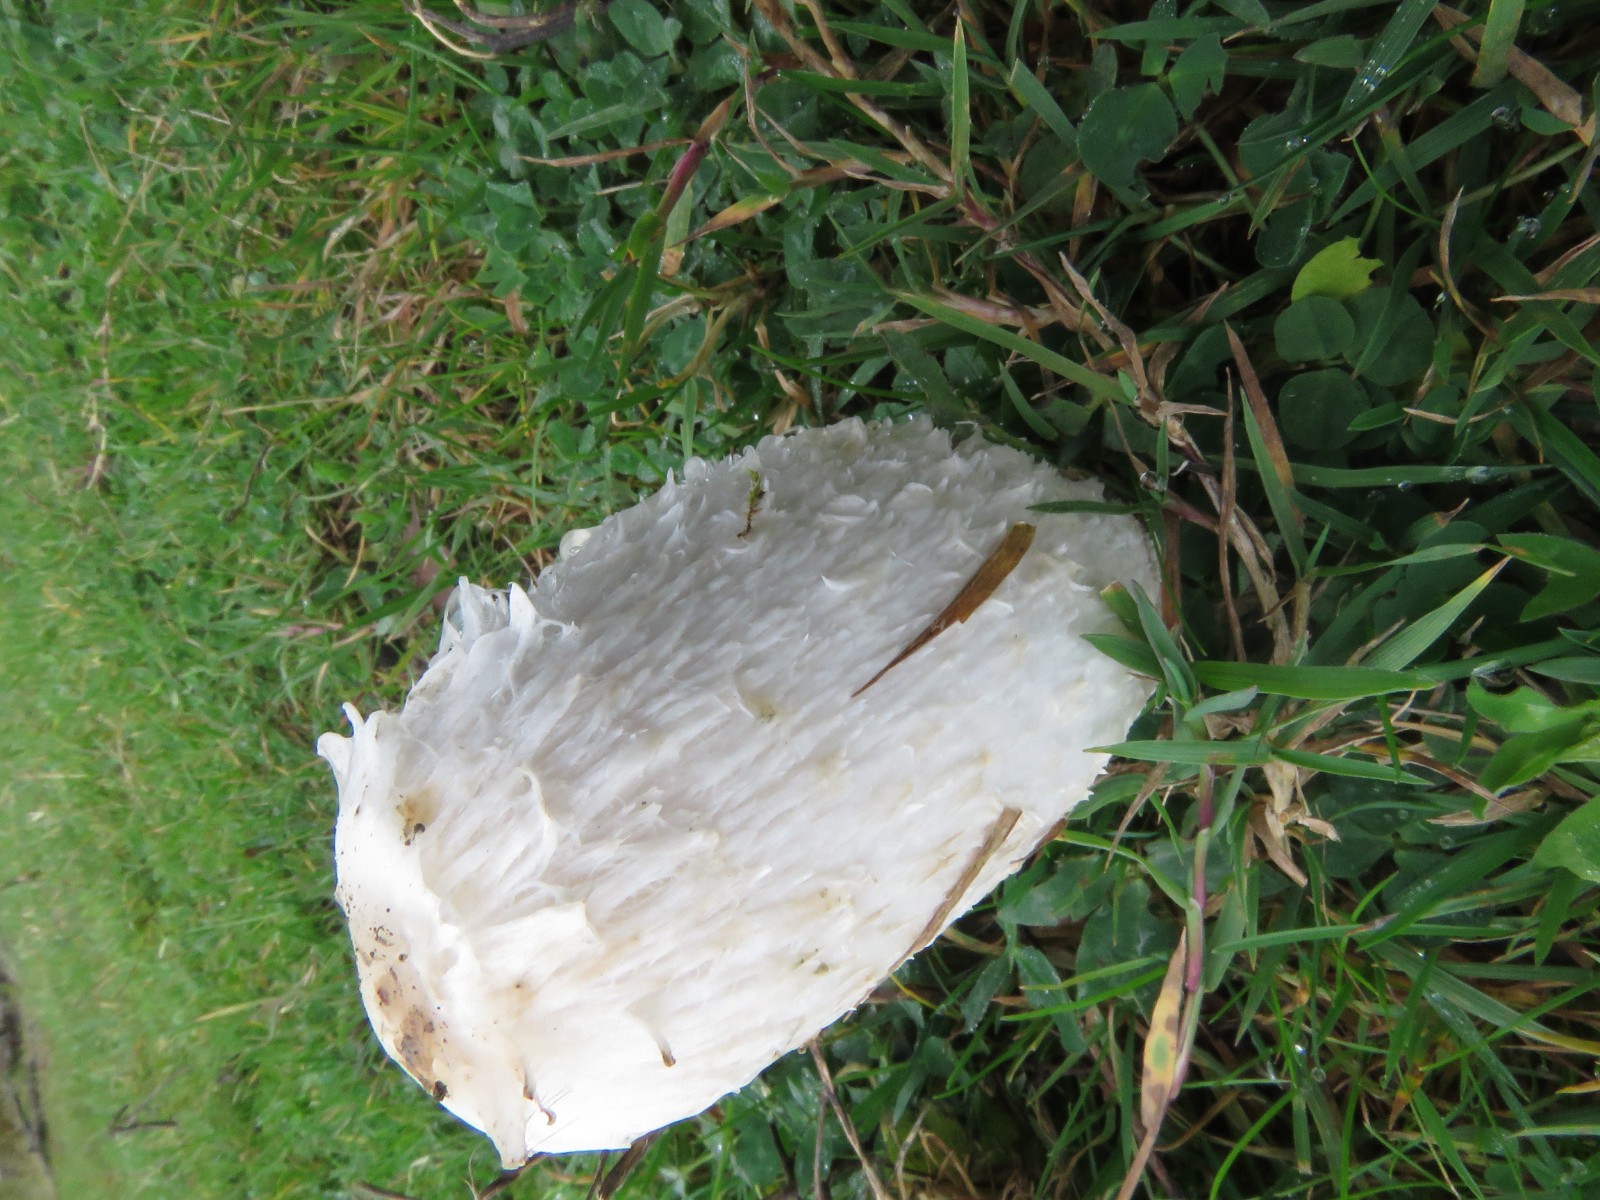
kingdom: Fungi
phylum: Basidiomycota
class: Agaricomycetes
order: Agaricales
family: Agaricaceae
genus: Coprinus
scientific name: Coprinus comatus
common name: stor parykhat
